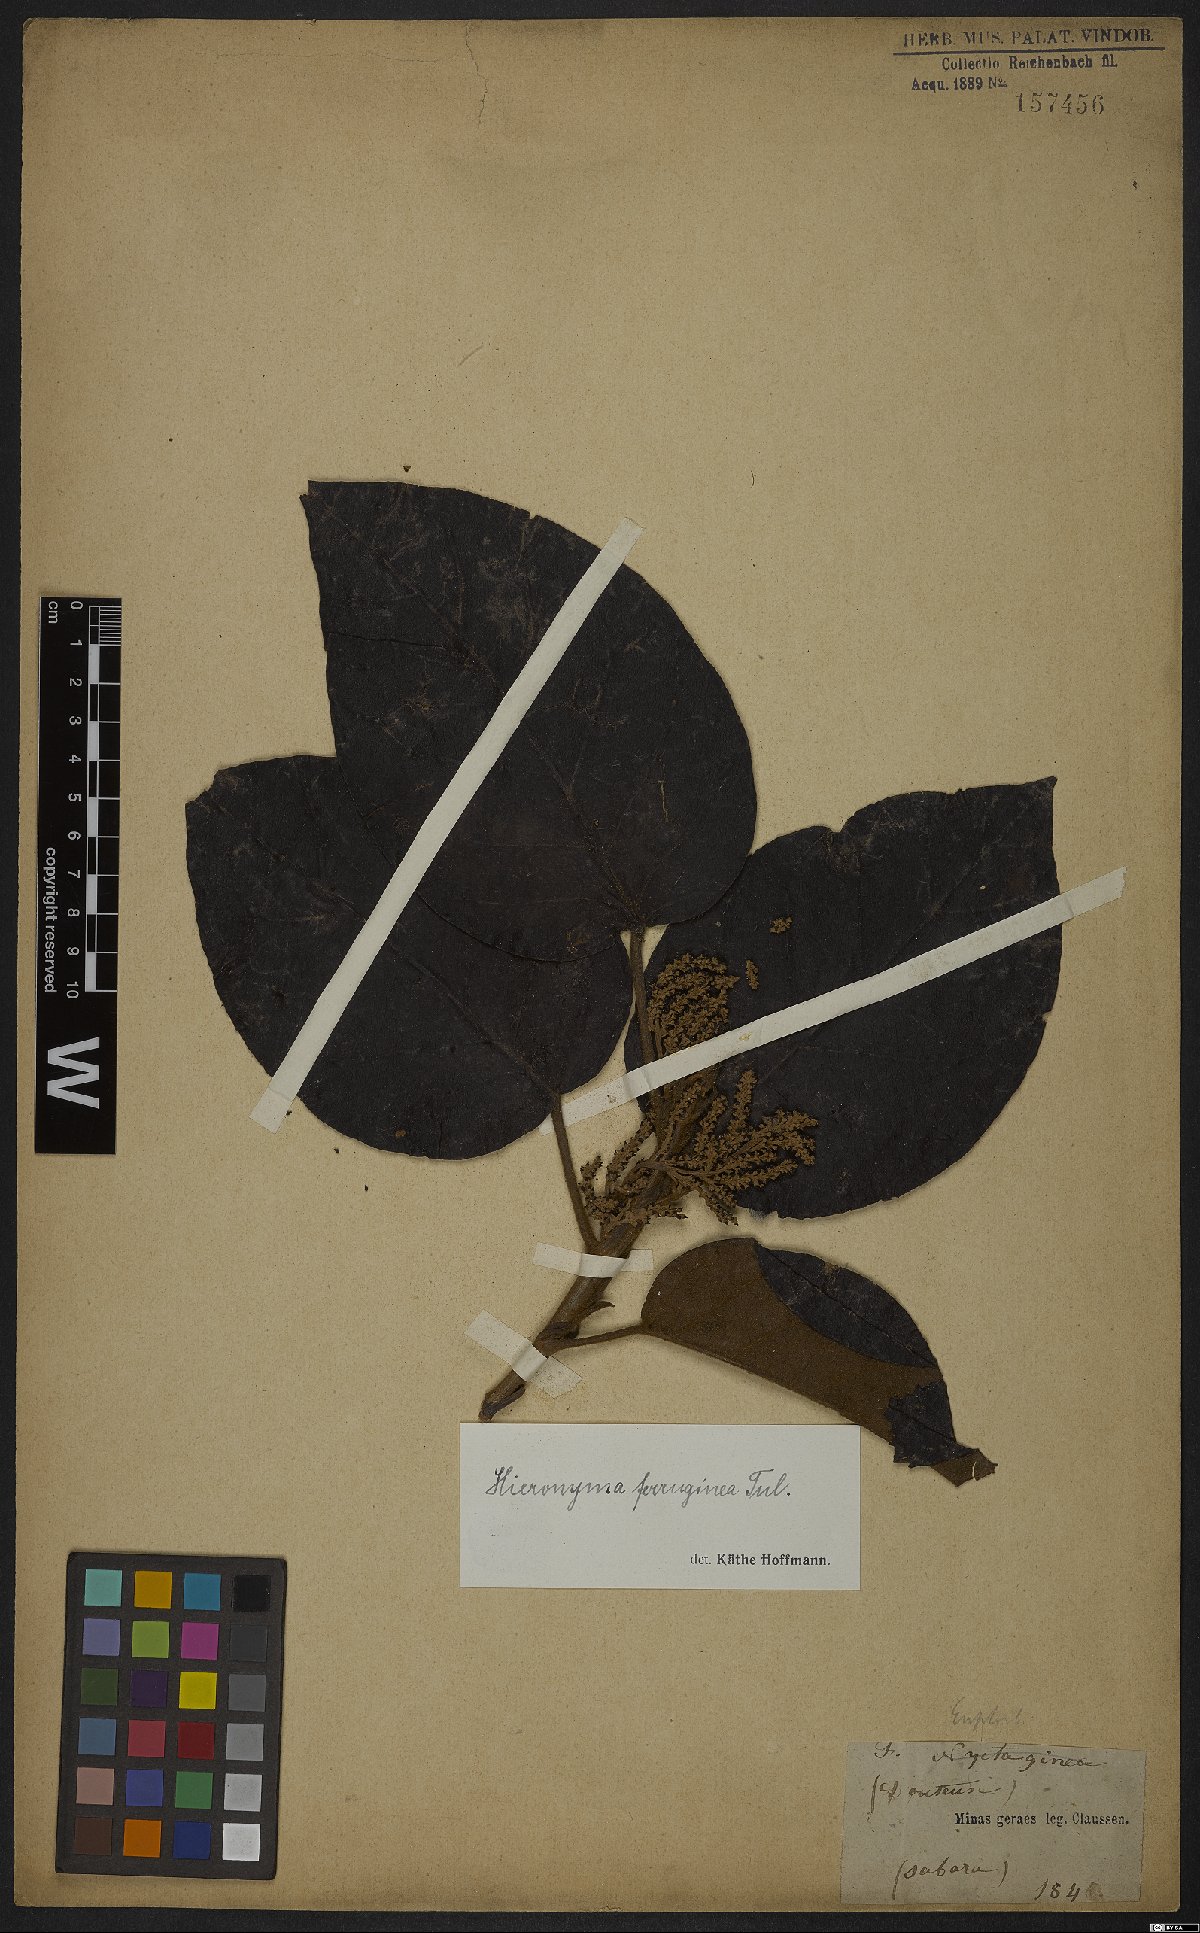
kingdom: Plantae
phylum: Tracheophyta
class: Magnoliopsida
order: Malpighiales
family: Phyllanthaceae
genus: Hieronyma
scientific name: Hieronyma alchorneoides
